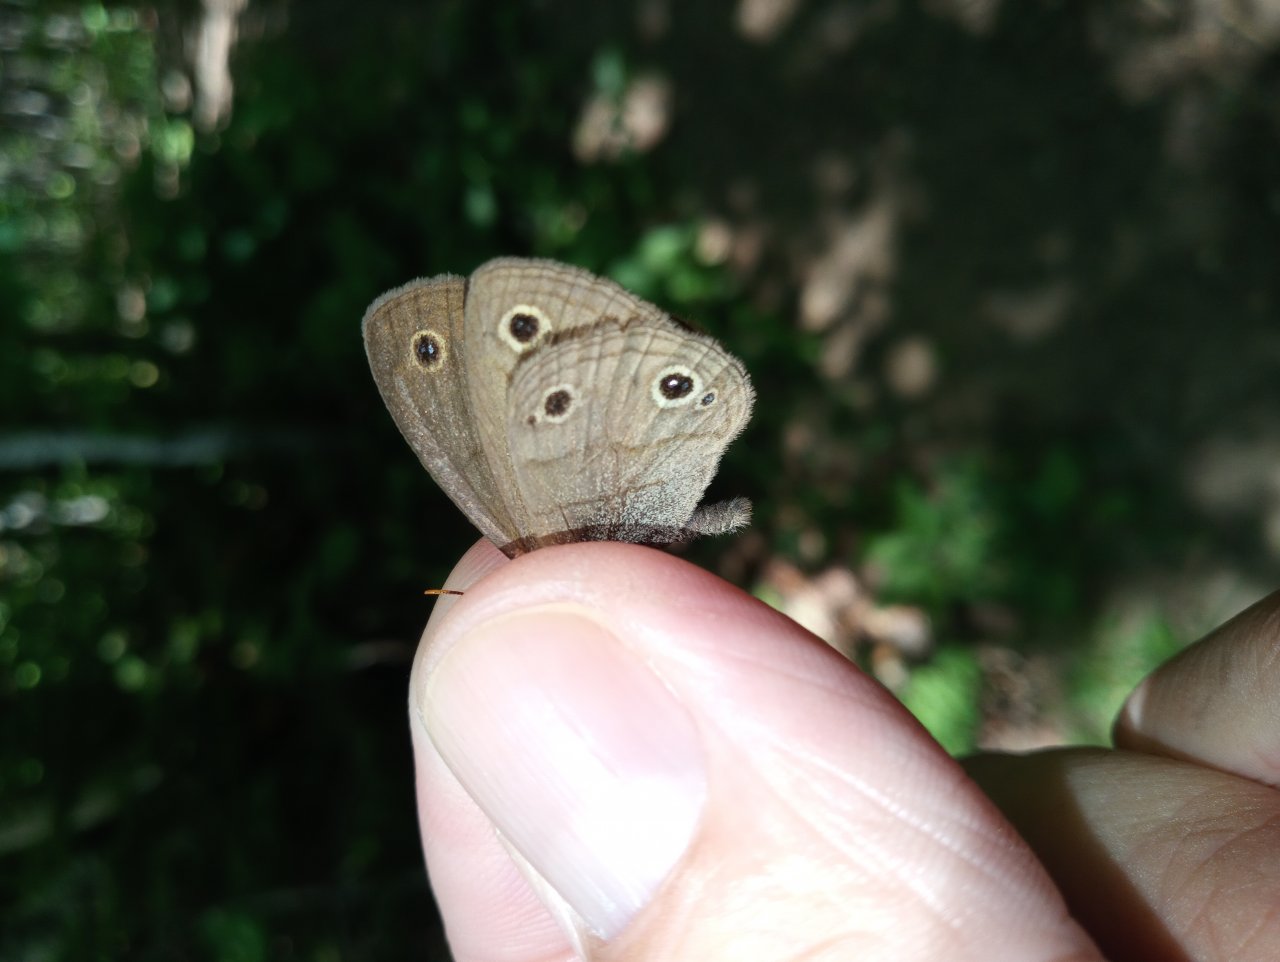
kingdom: Animalia
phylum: Arthropoda
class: Insecta
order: Lepidoptera
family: Nymphalidae
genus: Euptychia
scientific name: Euptychia cymela
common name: Little Wood Satyr
